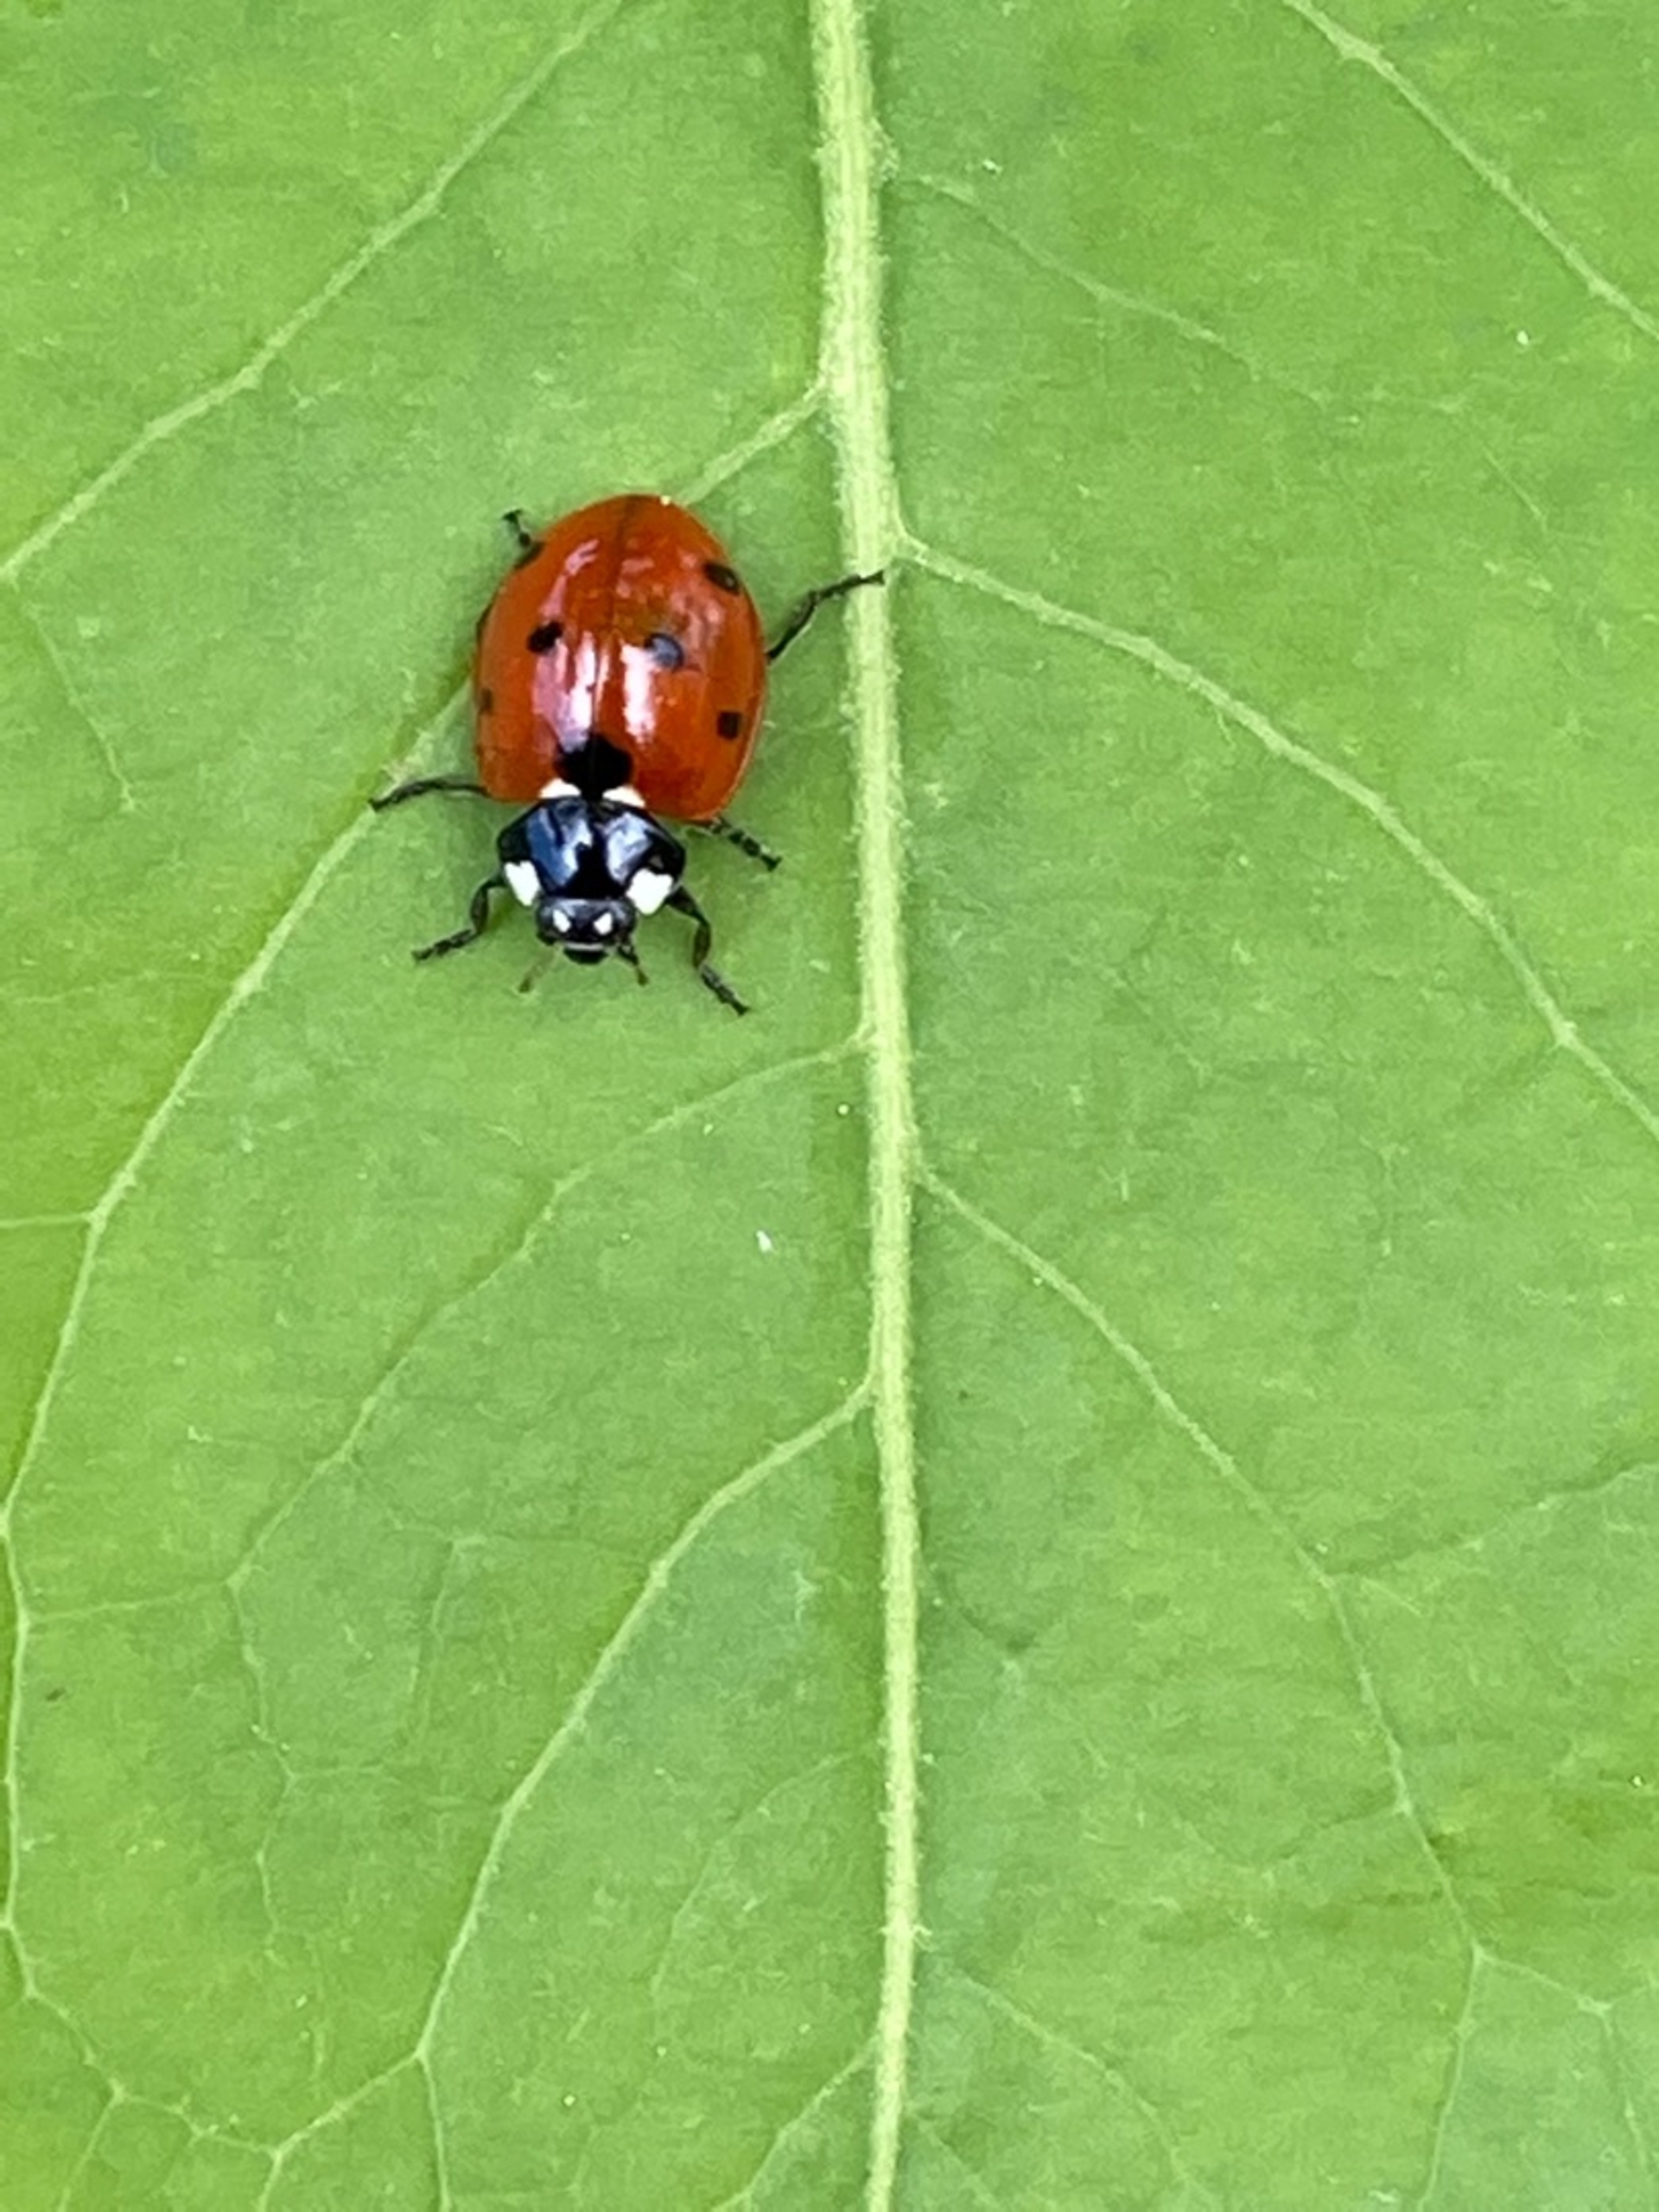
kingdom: Animalia
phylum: Arthropoda
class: Insecta
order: Coleoptera
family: Coccinellidae
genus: Coccinella
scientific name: Coccinella septempunctata
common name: Syvplettet mariehøne
